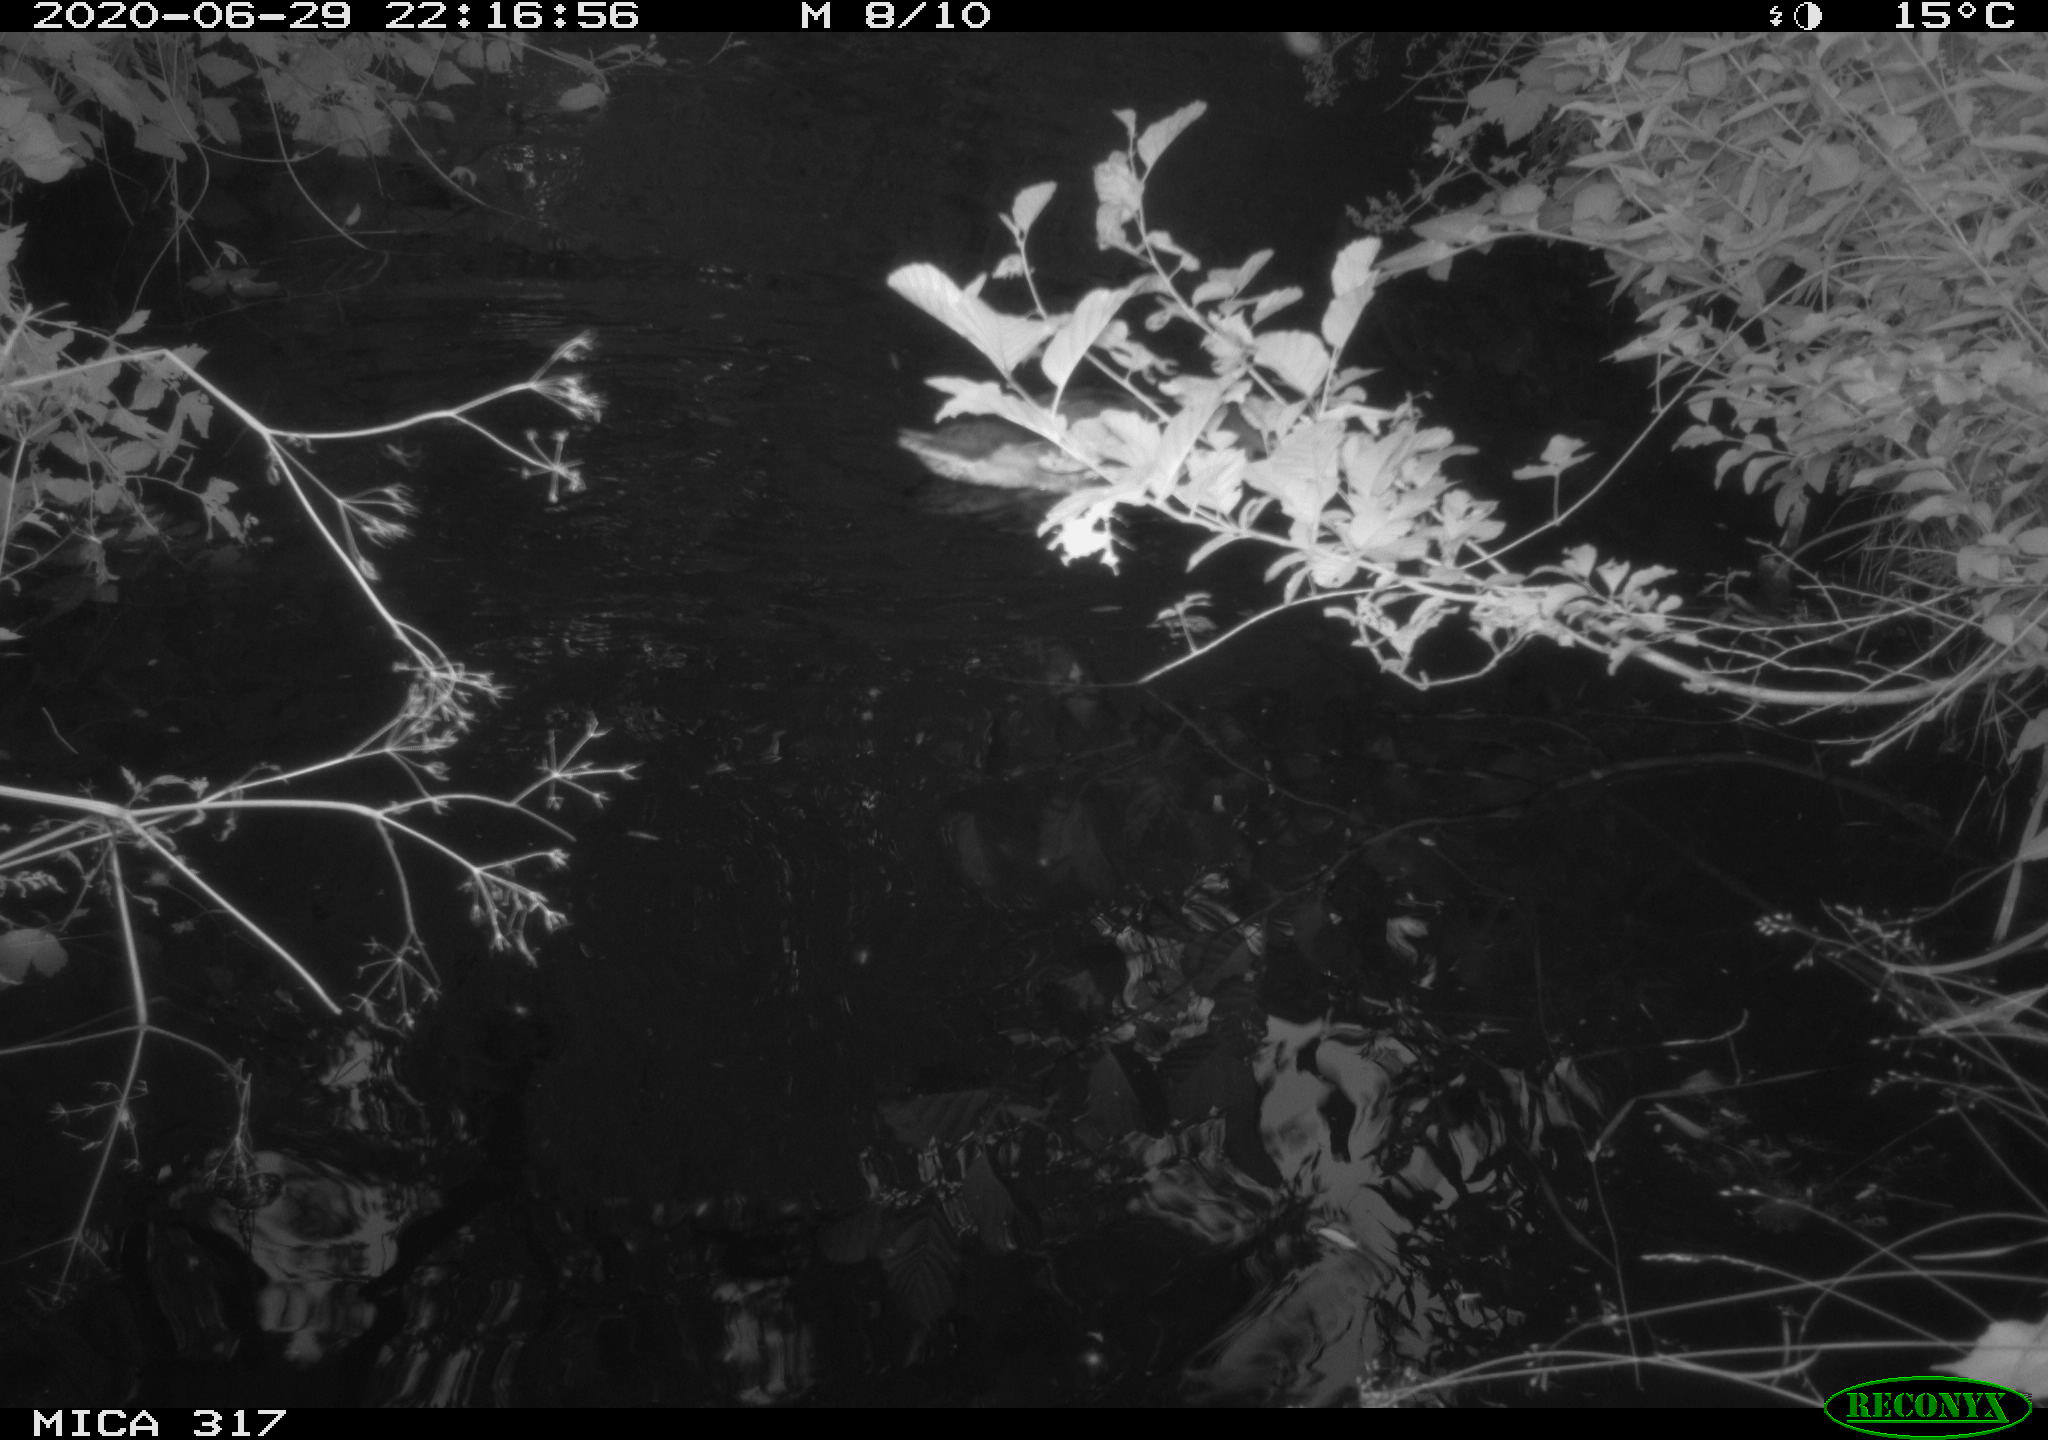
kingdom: Animalia
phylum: Chordata
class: Aves
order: Anseriformes
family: Anatidae
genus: Anas
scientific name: Anas platyrhynchos
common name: Mallard
